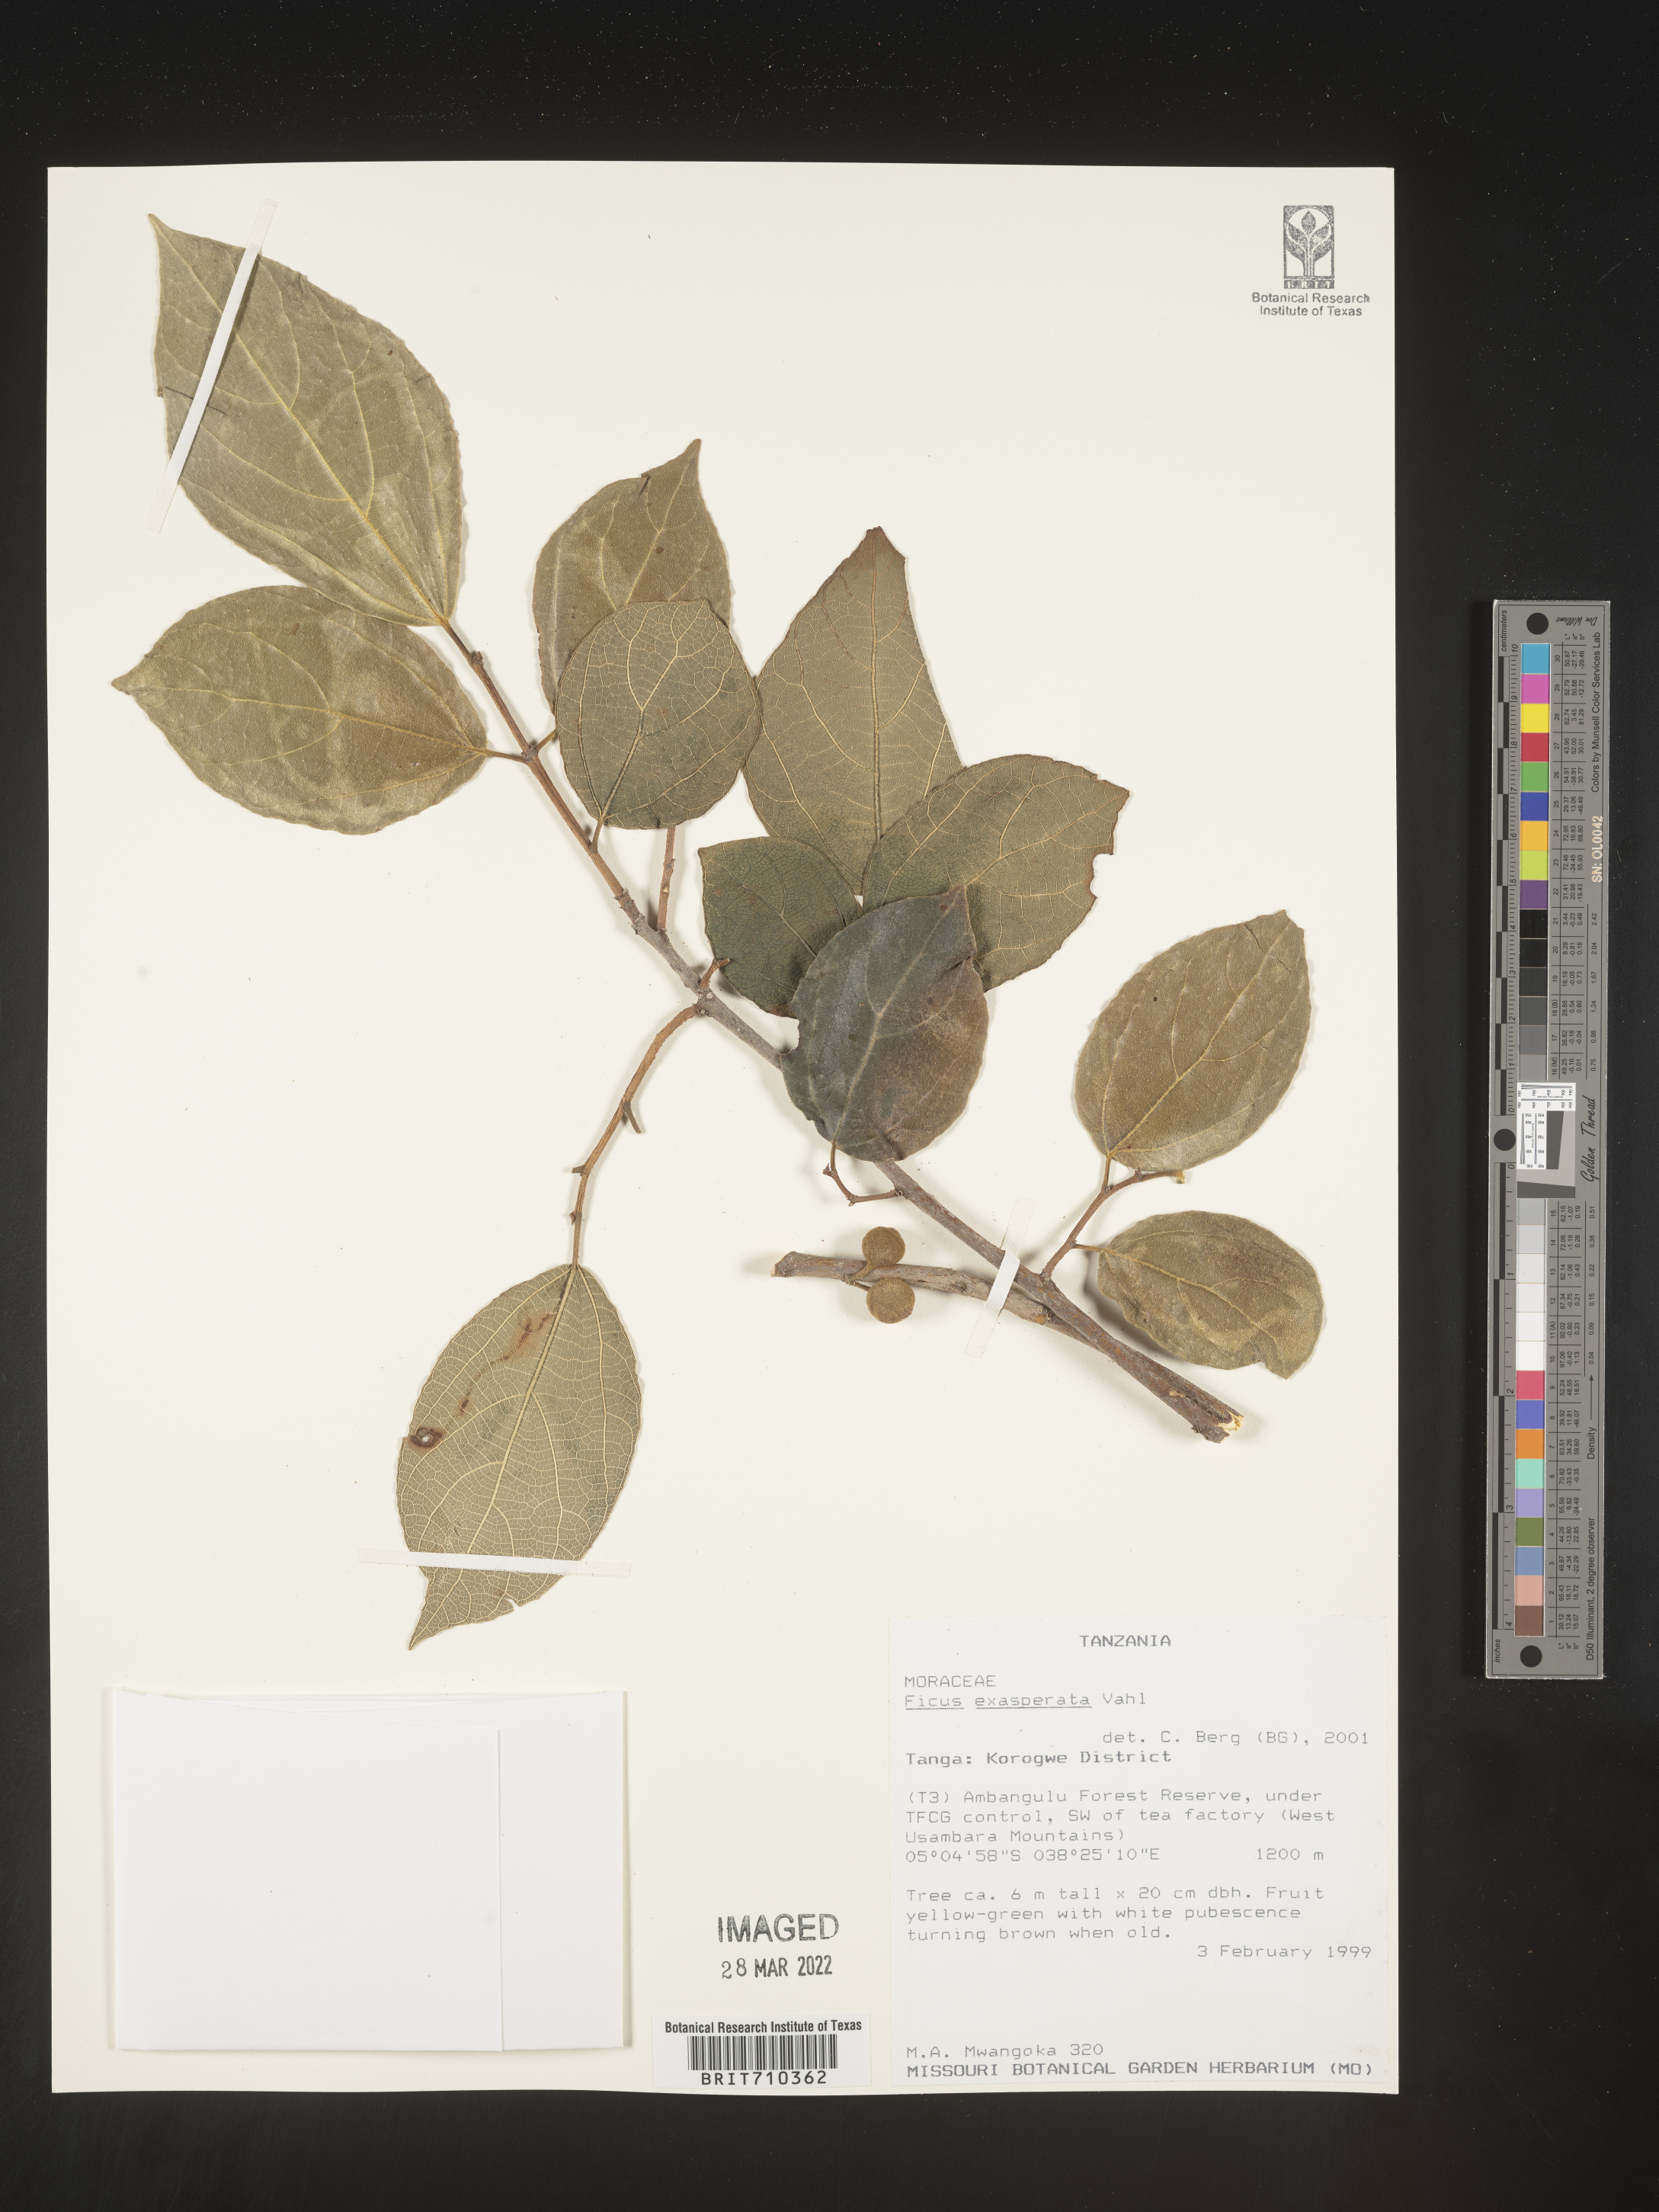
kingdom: Plantae
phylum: Tracheophyta
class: Magnoliopsida
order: Rosales
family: Moraceae
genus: Ficus
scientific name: Ficus
